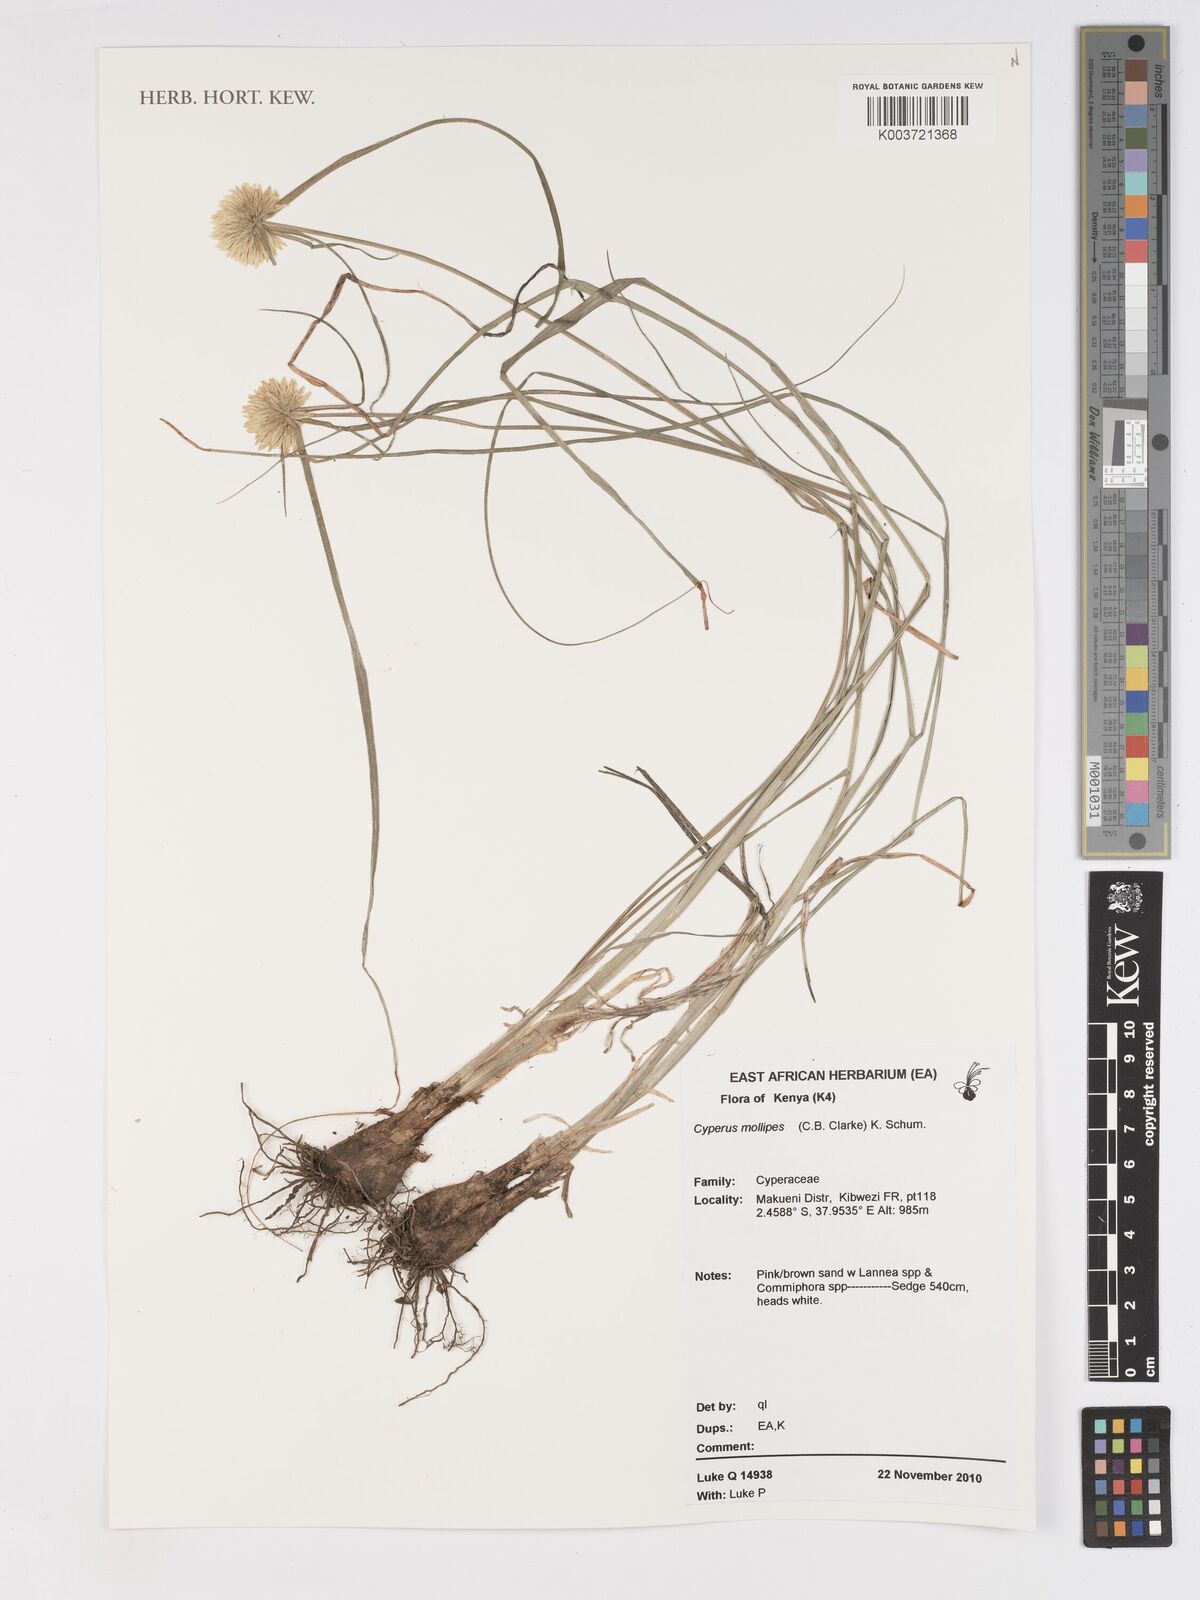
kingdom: Plantae
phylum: Tracheophyta
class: Liliopsida
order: Poales
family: Cyperaceae
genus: Cyperus
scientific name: Cyperus mollipes
